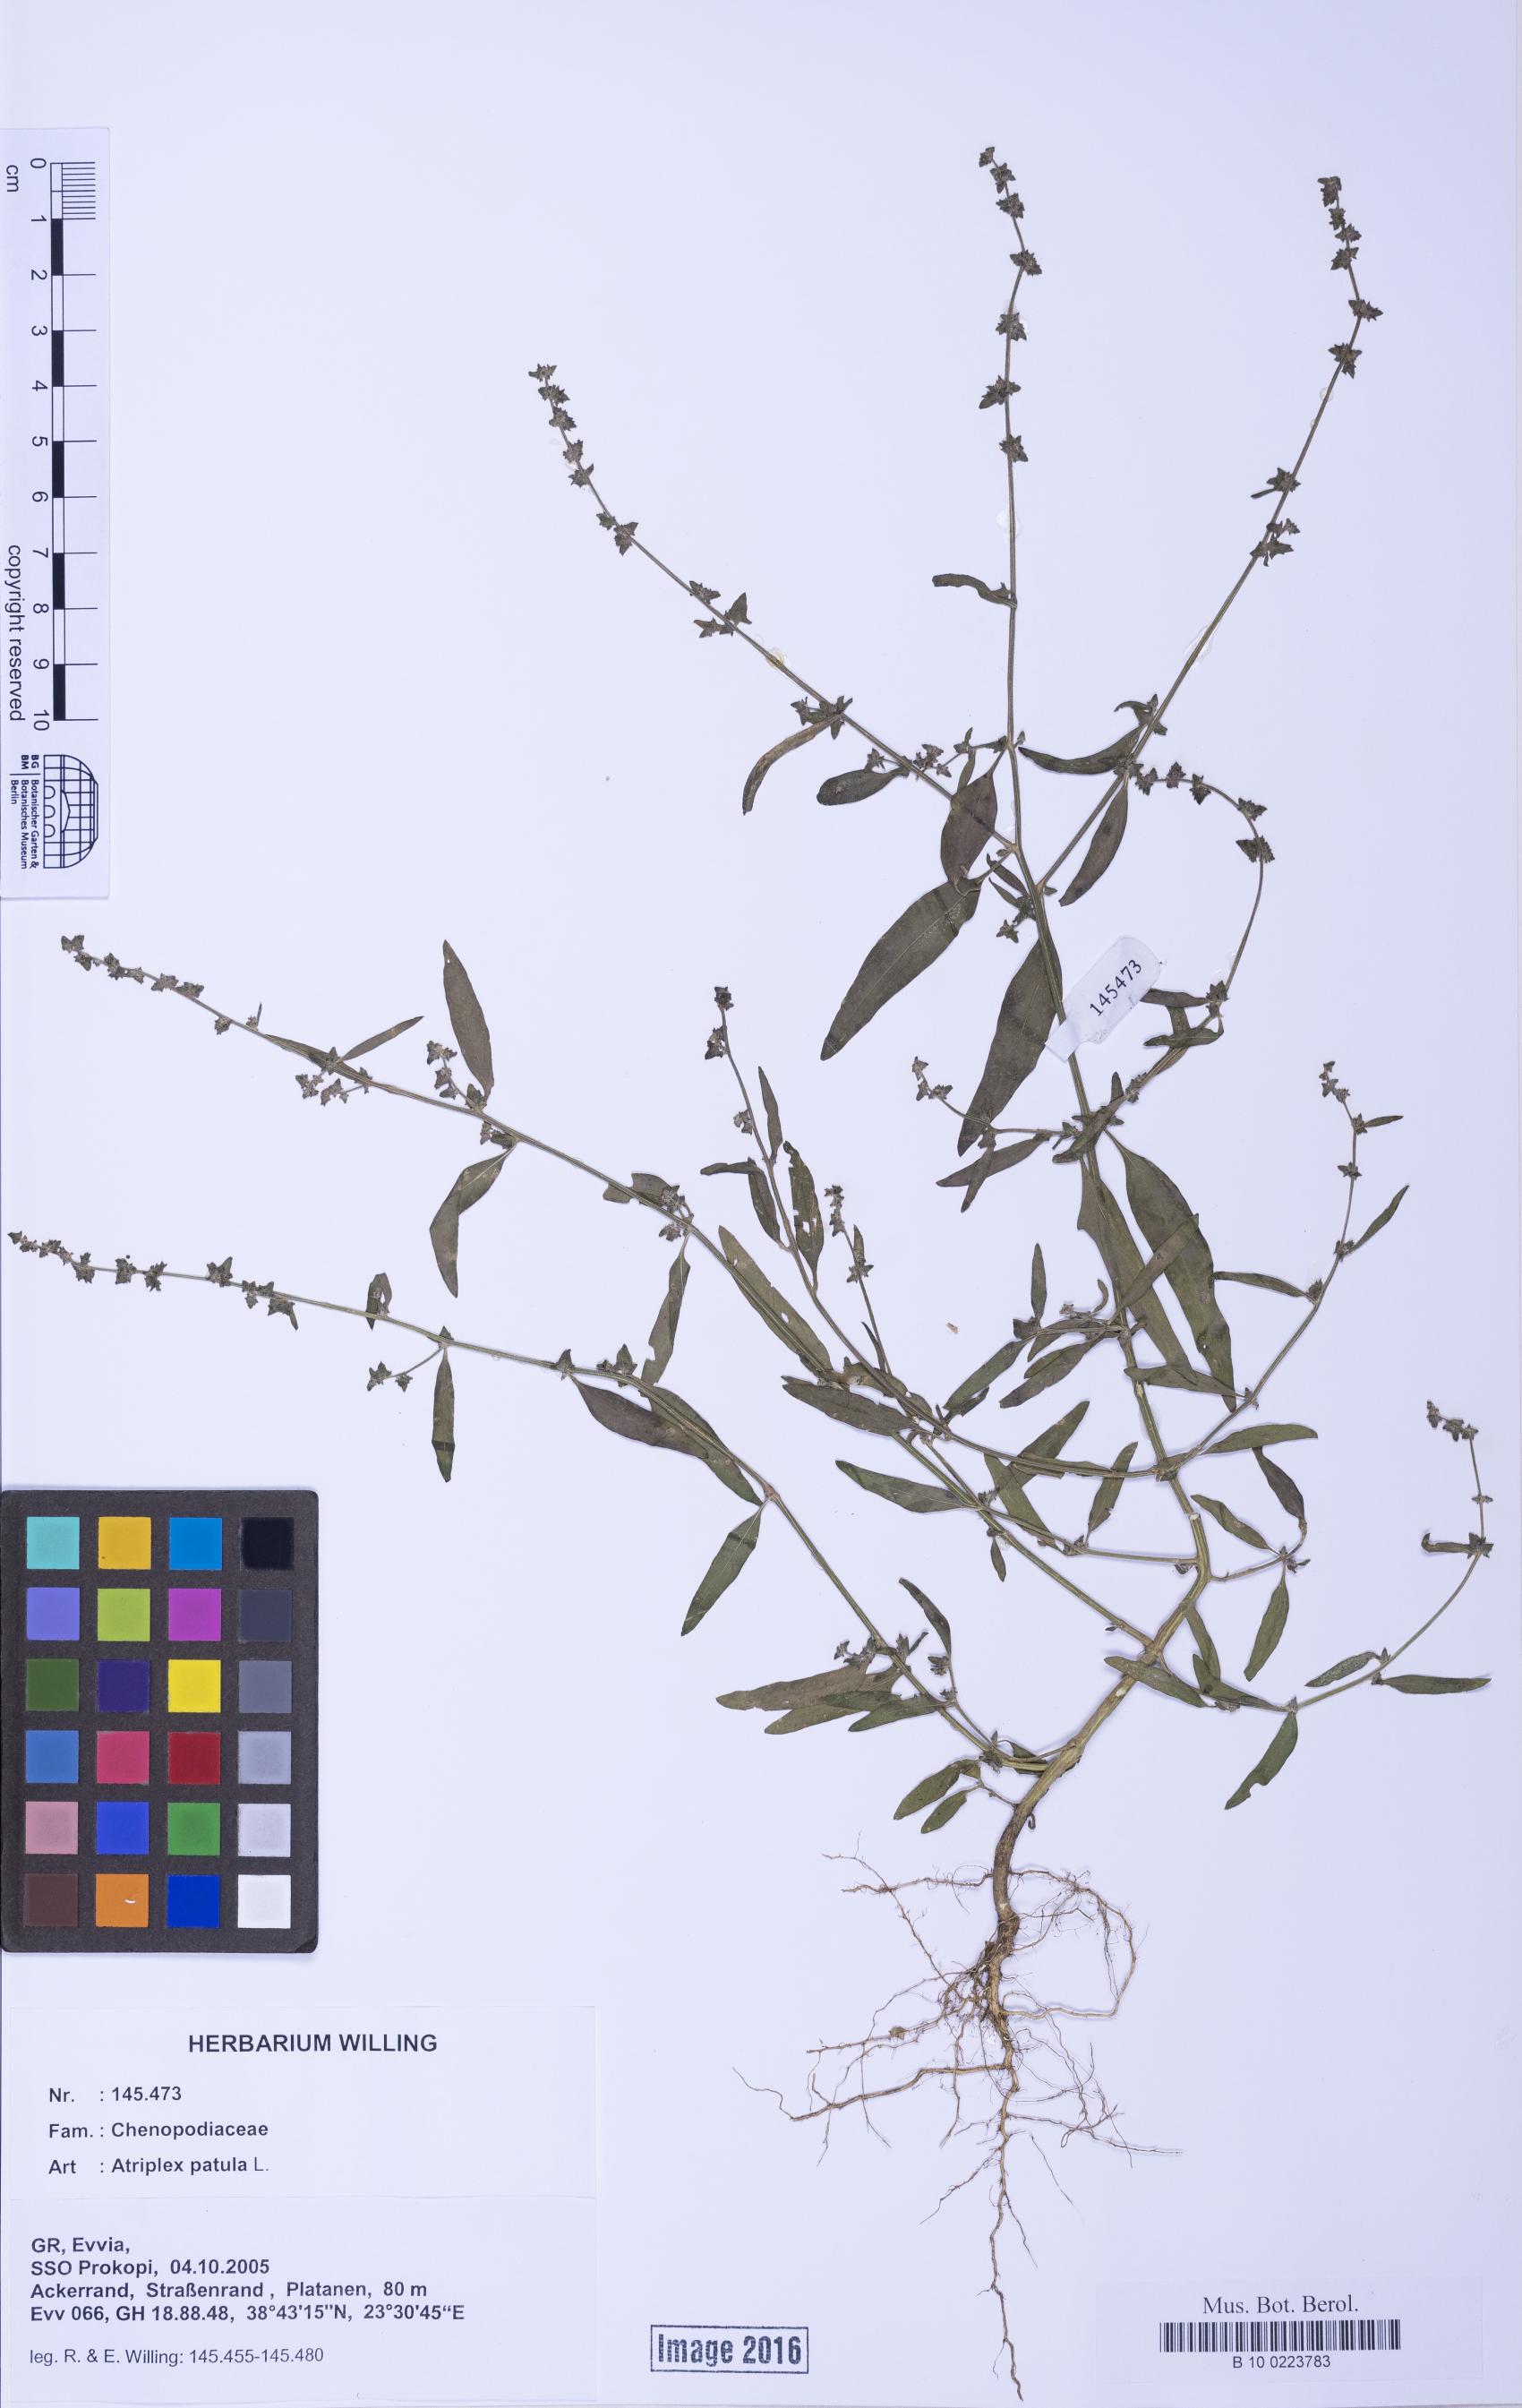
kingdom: Plantae
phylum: Tracheophyta
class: Magnoliopsida
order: Caryophyllales
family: Amaranthaceae
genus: Atriplex
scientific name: Atriplex patula
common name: Common orache
